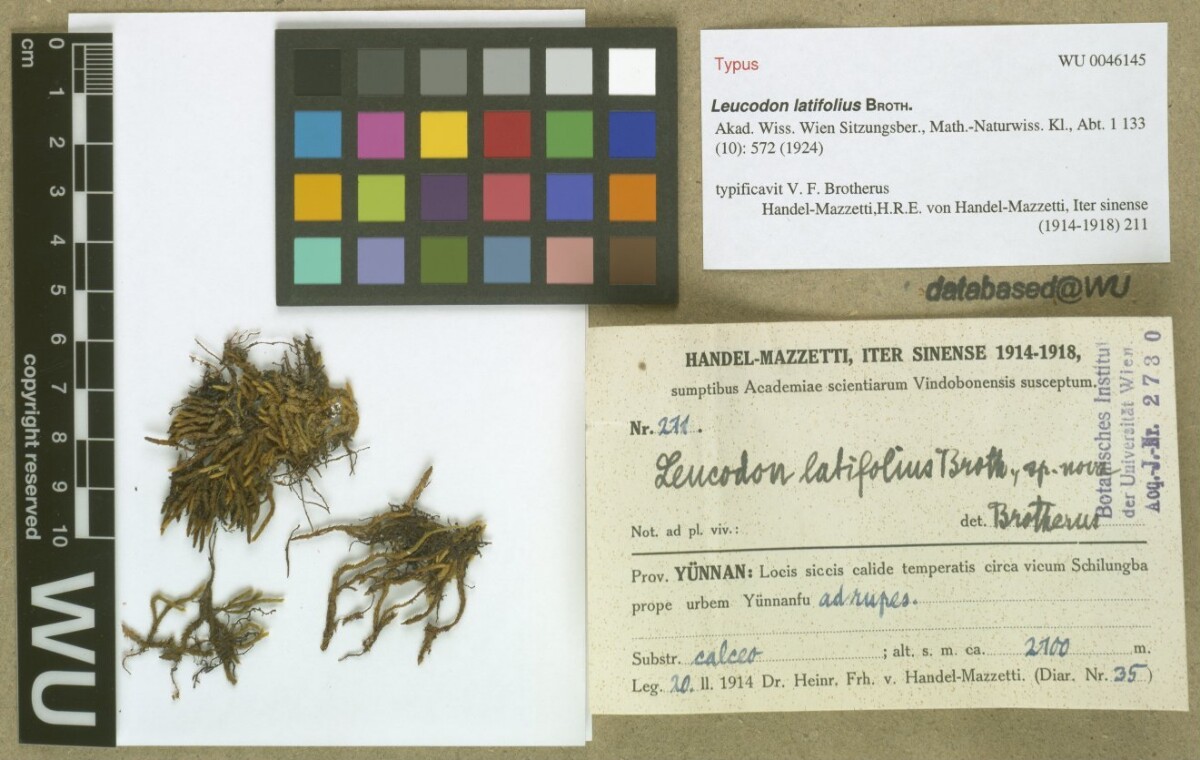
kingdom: Plantae
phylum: Bryophyta
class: Bryopsida
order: Hypnales
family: Leucodontaceae
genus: Pterogoniadelphus
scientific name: Pterogoniadelphus esquirolii
